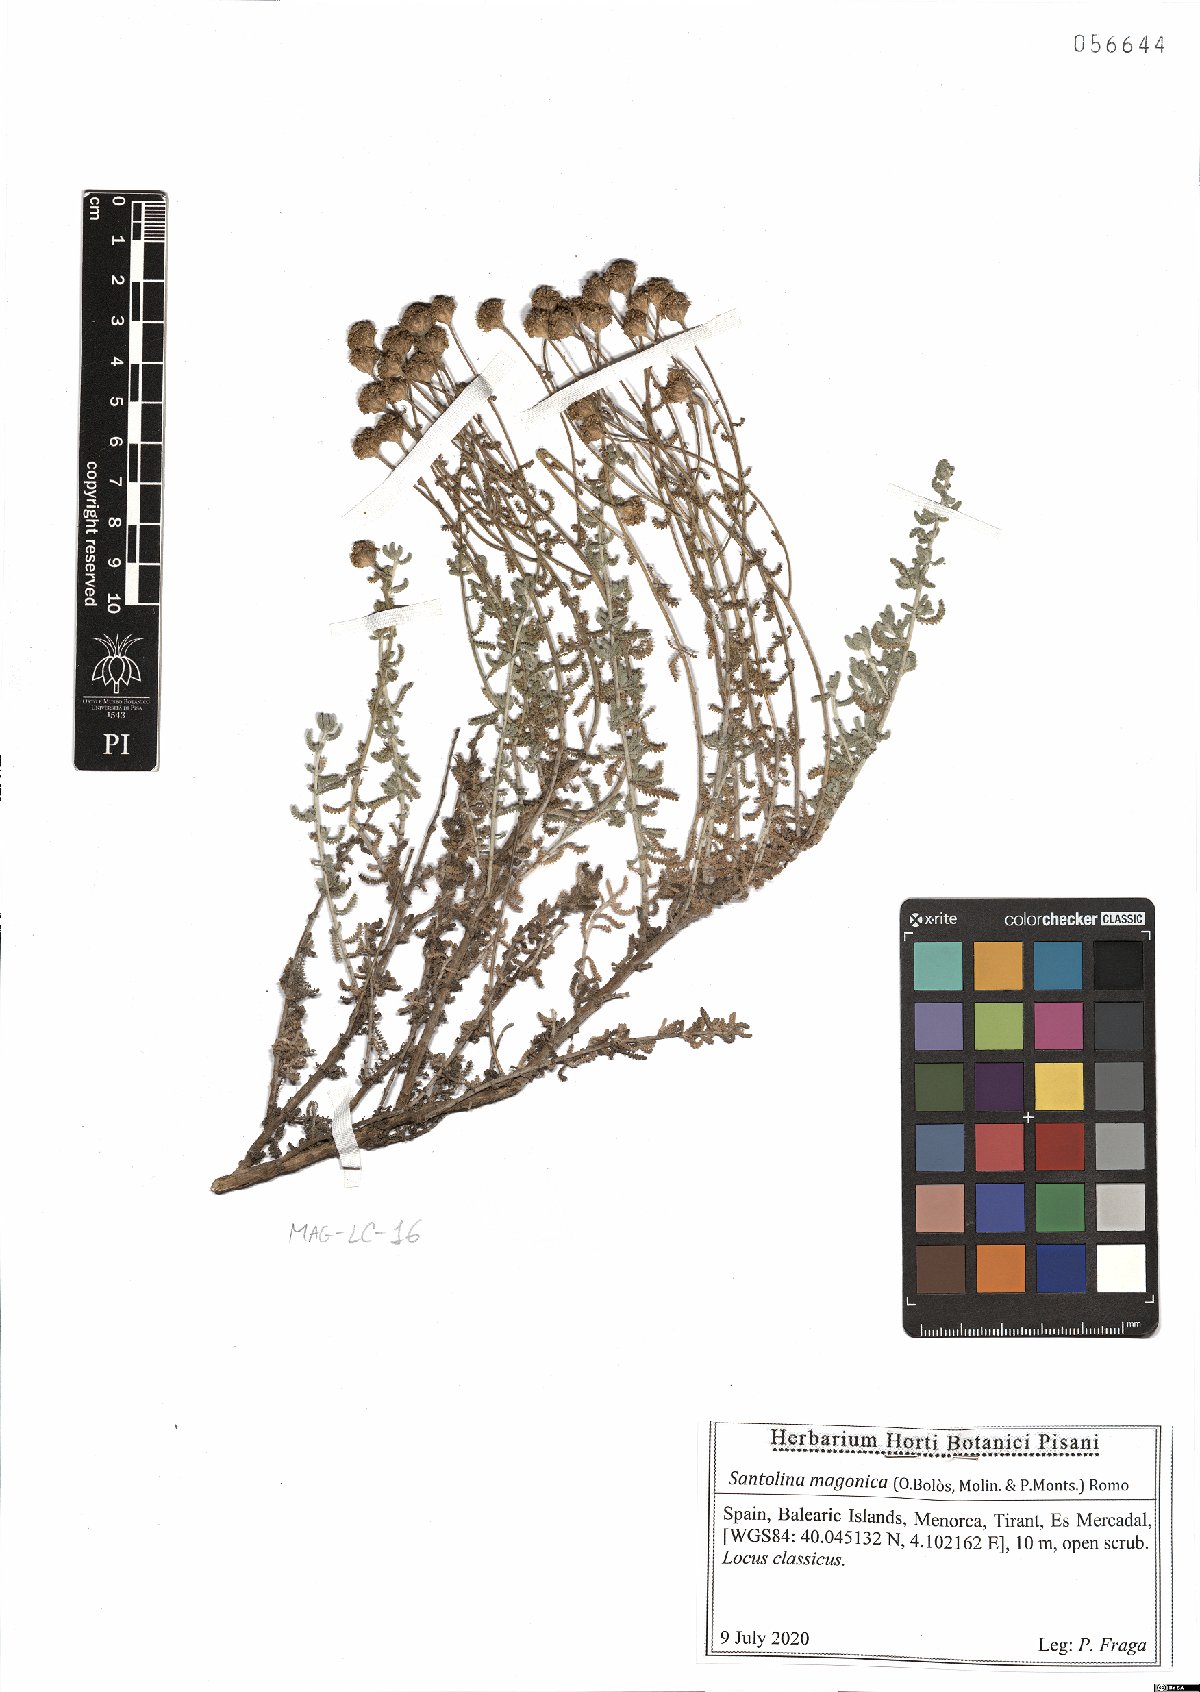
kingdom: Plantae
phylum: Tracheophyta
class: Magnoliopsida
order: Asterales
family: Asteraceae
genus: Santolina
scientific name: Santolina magonica
